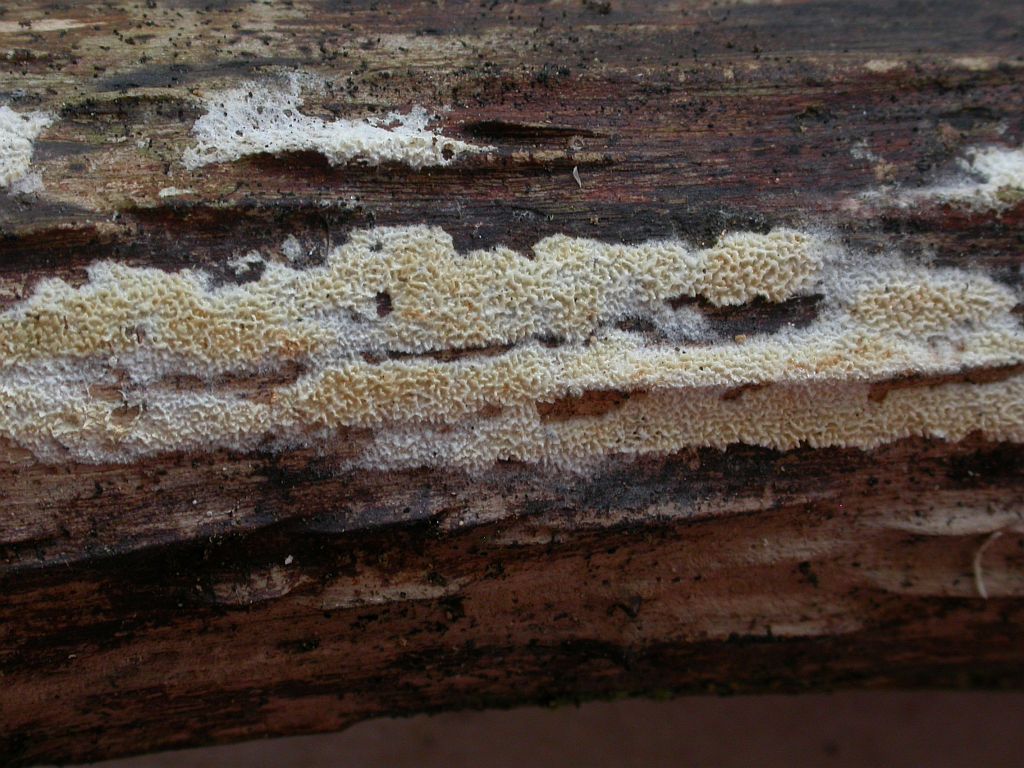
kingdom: Fungi
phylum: Basidiomycota
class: Agaricomycetes
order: Hymenochaetales
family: Schizoporaceae
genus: Xylodon
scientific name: Xylodon subtropicus
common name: labyrint-tandsvamp
